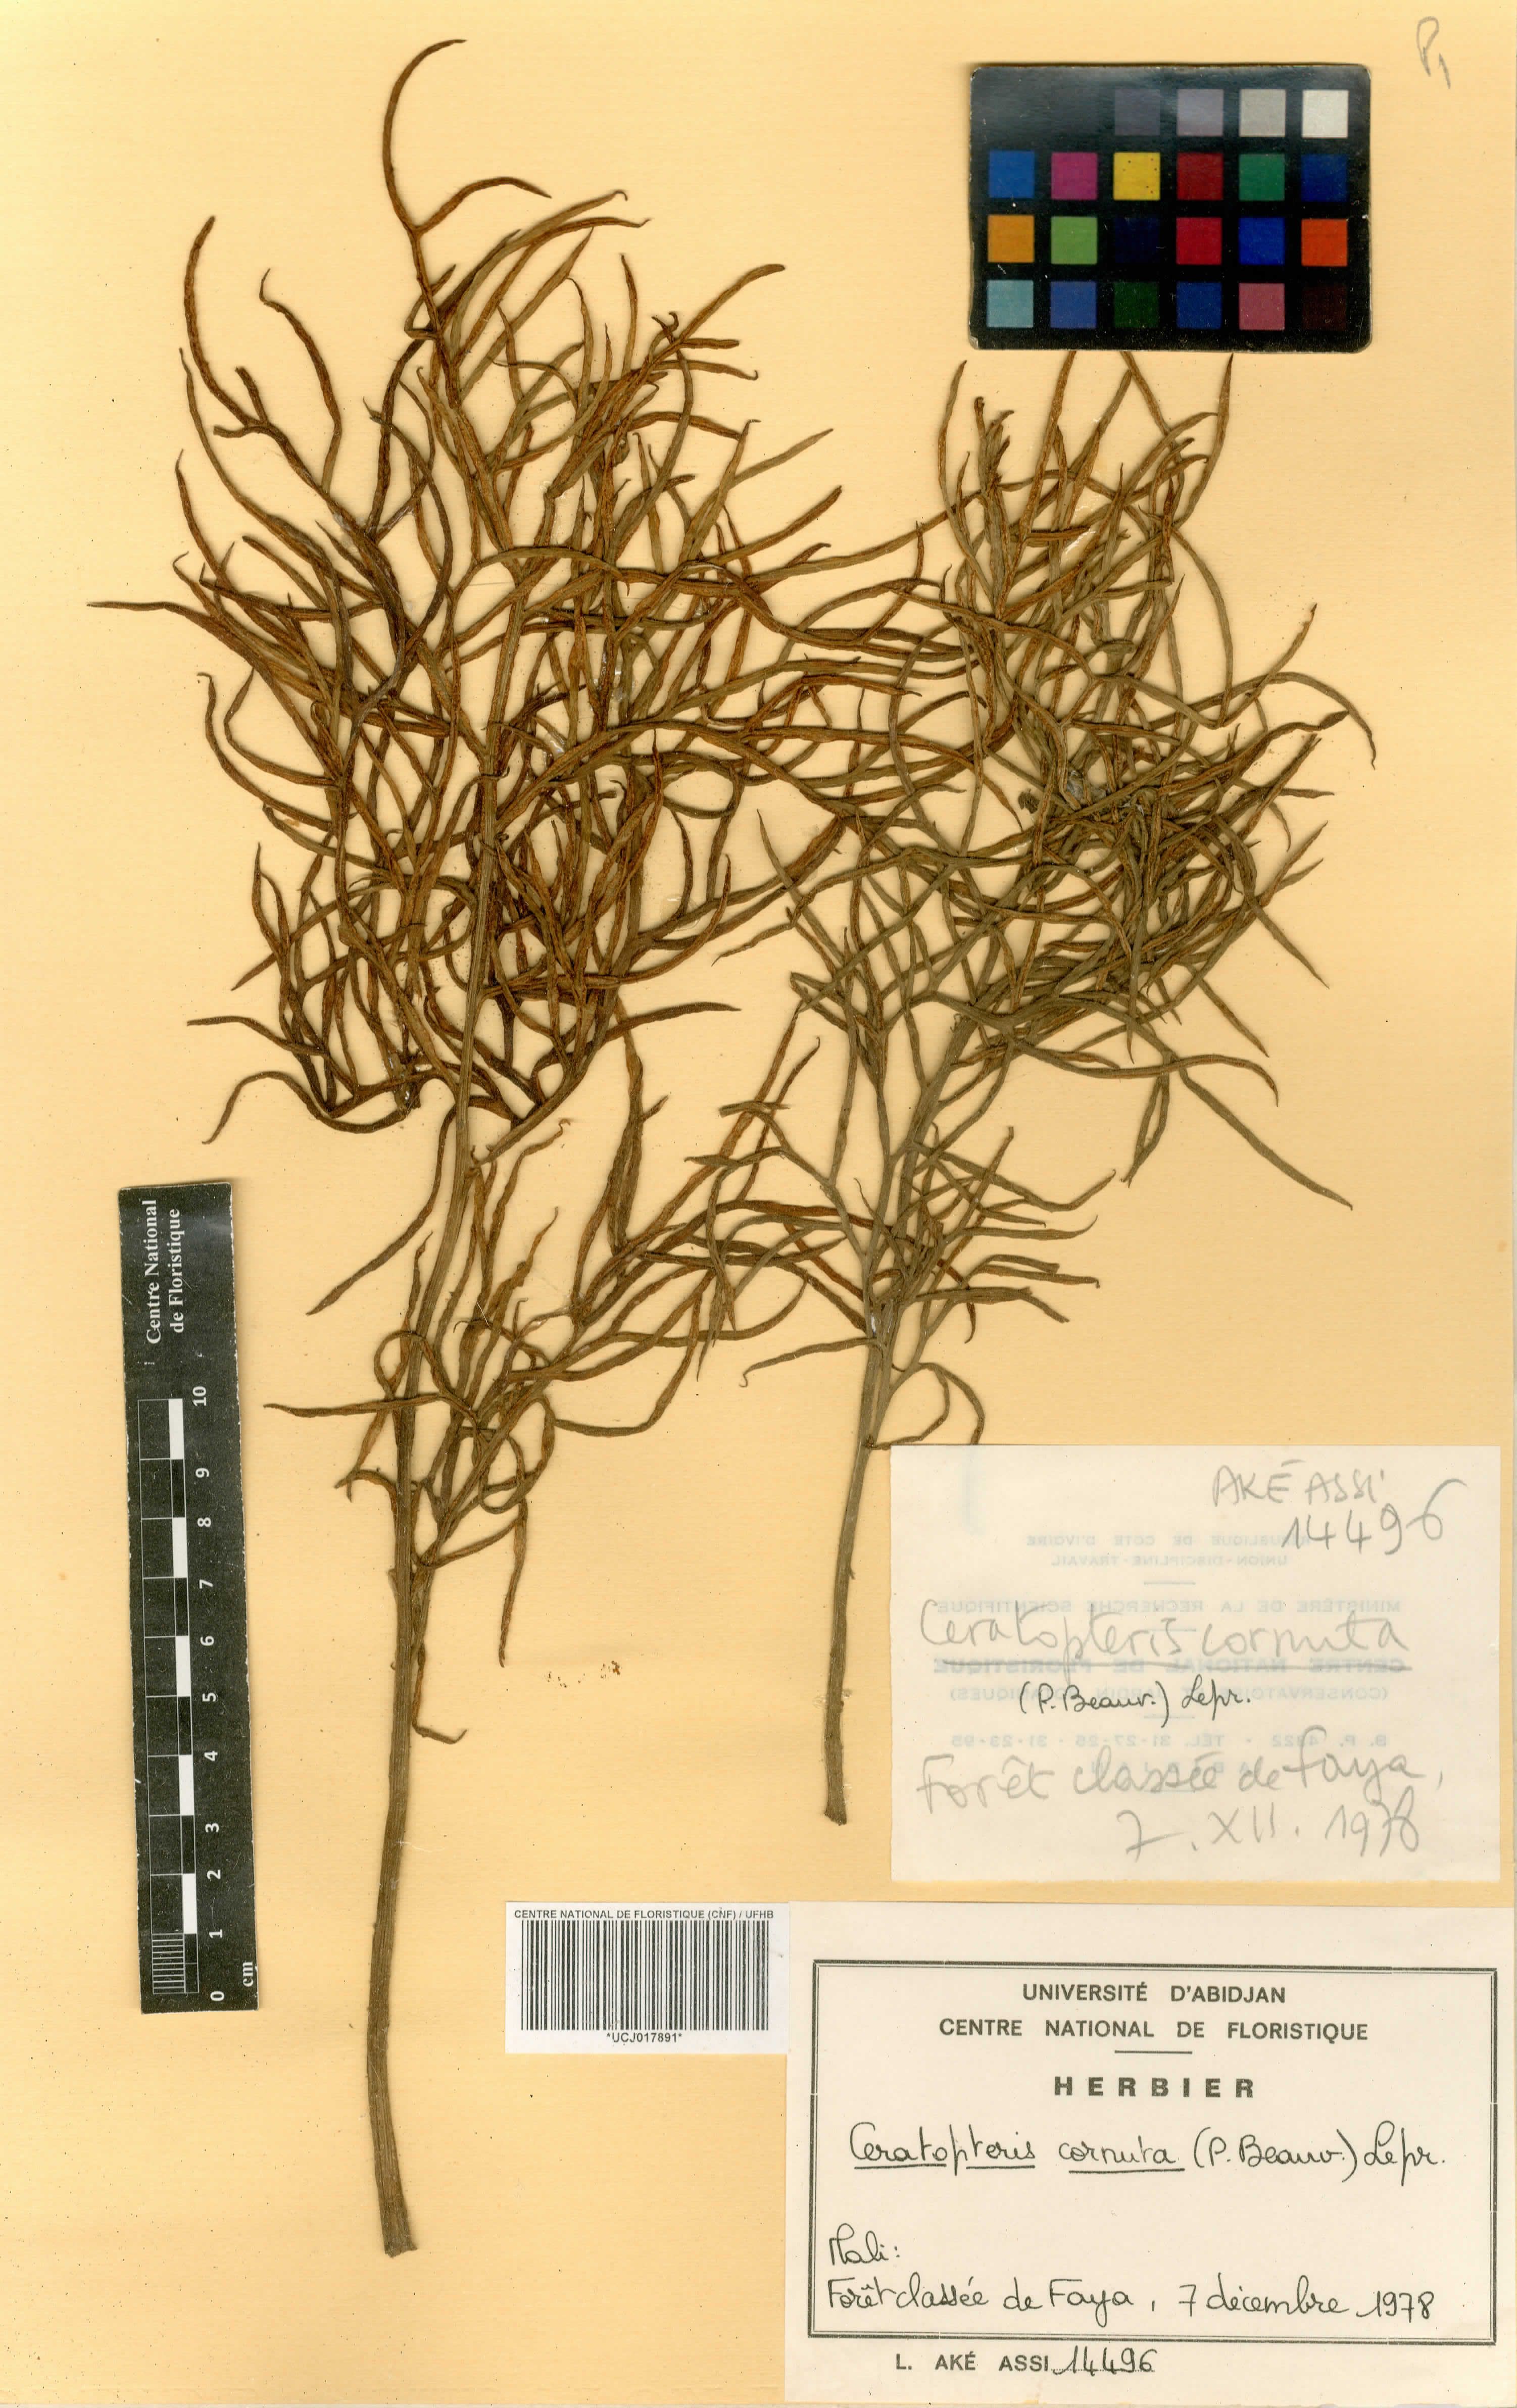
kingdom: Plantae
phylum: Tracheophyta
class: Polypodiopsida
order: Polypodiales
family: Pteridaceae
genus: Ceratopteris
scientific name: Ceratopteris cornuta
